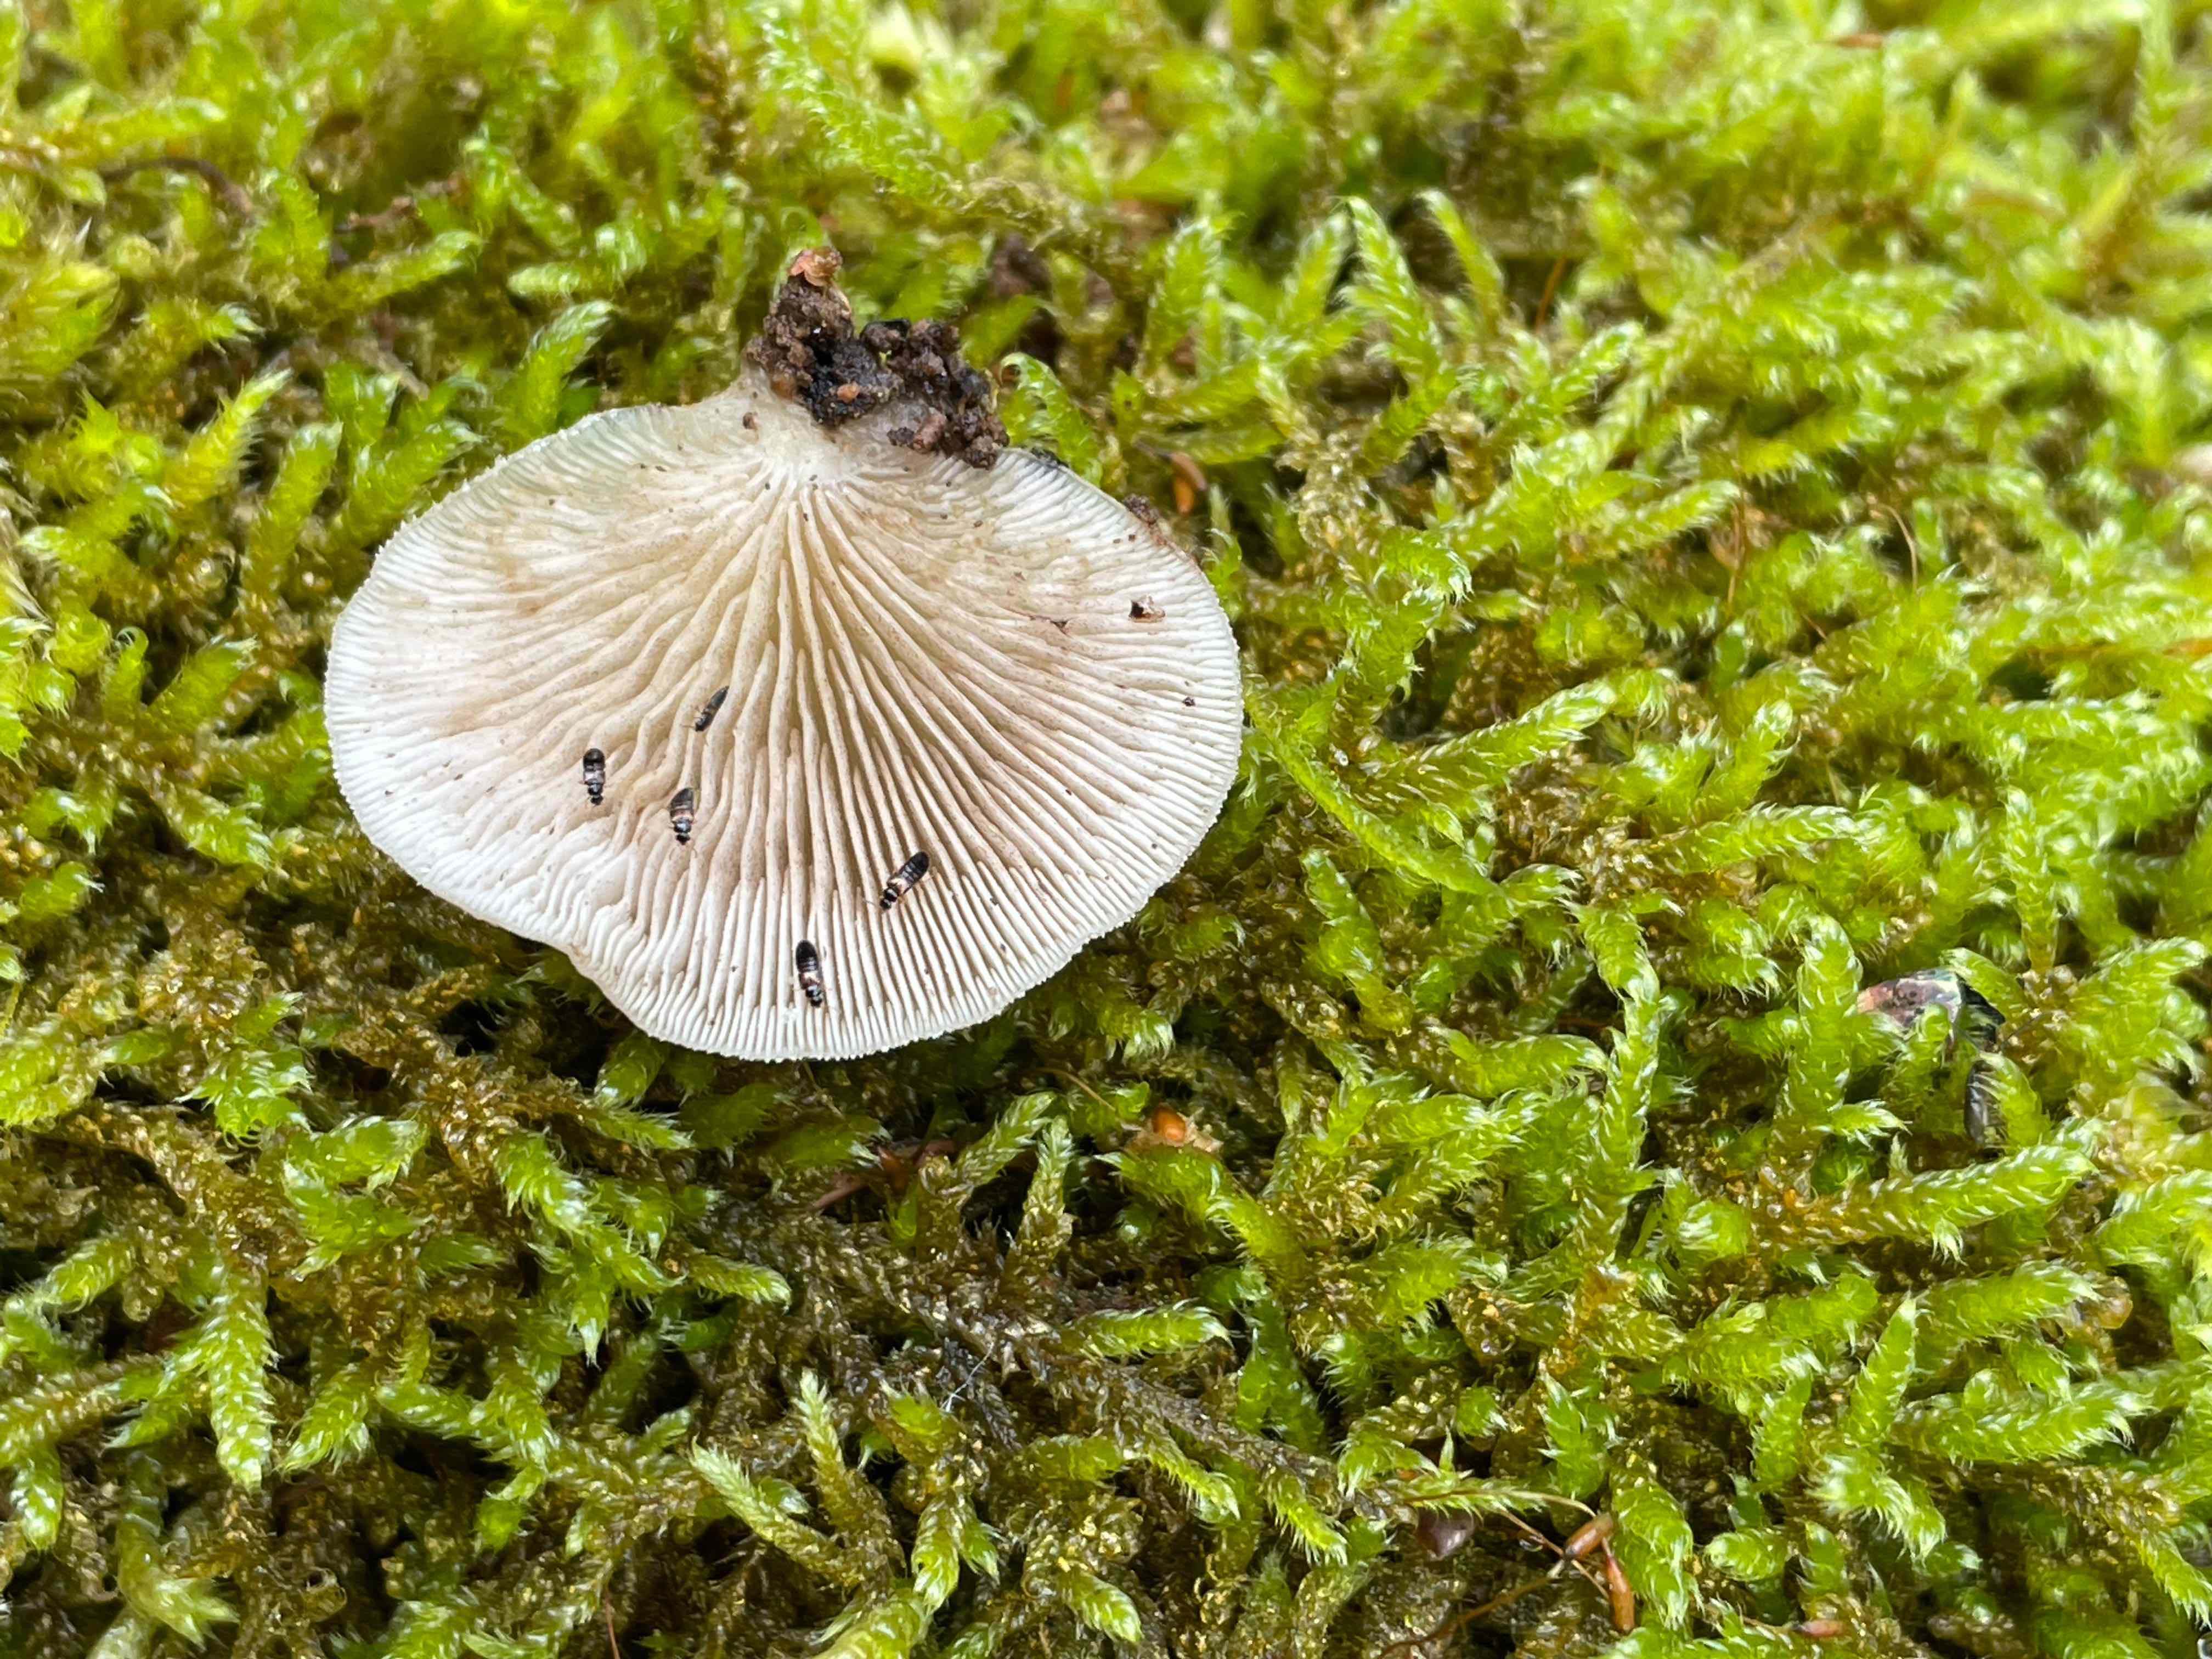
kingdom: Fungi
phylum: Basidiomycota
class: Agaricomycetes
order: Agaricales
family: Crepidotaceae
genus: Crepidotus
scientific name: Crepidotus
